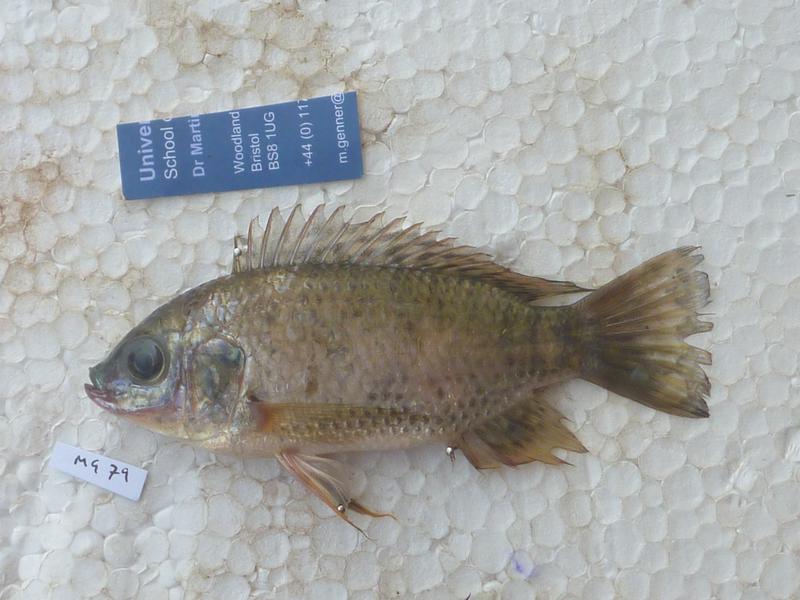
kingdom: Animalia
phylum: Chordata
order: Perciformes
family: Cichlidae
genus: Oreochromis
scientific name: Oreochromis leucostictus
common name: Blue spotted tilapia
